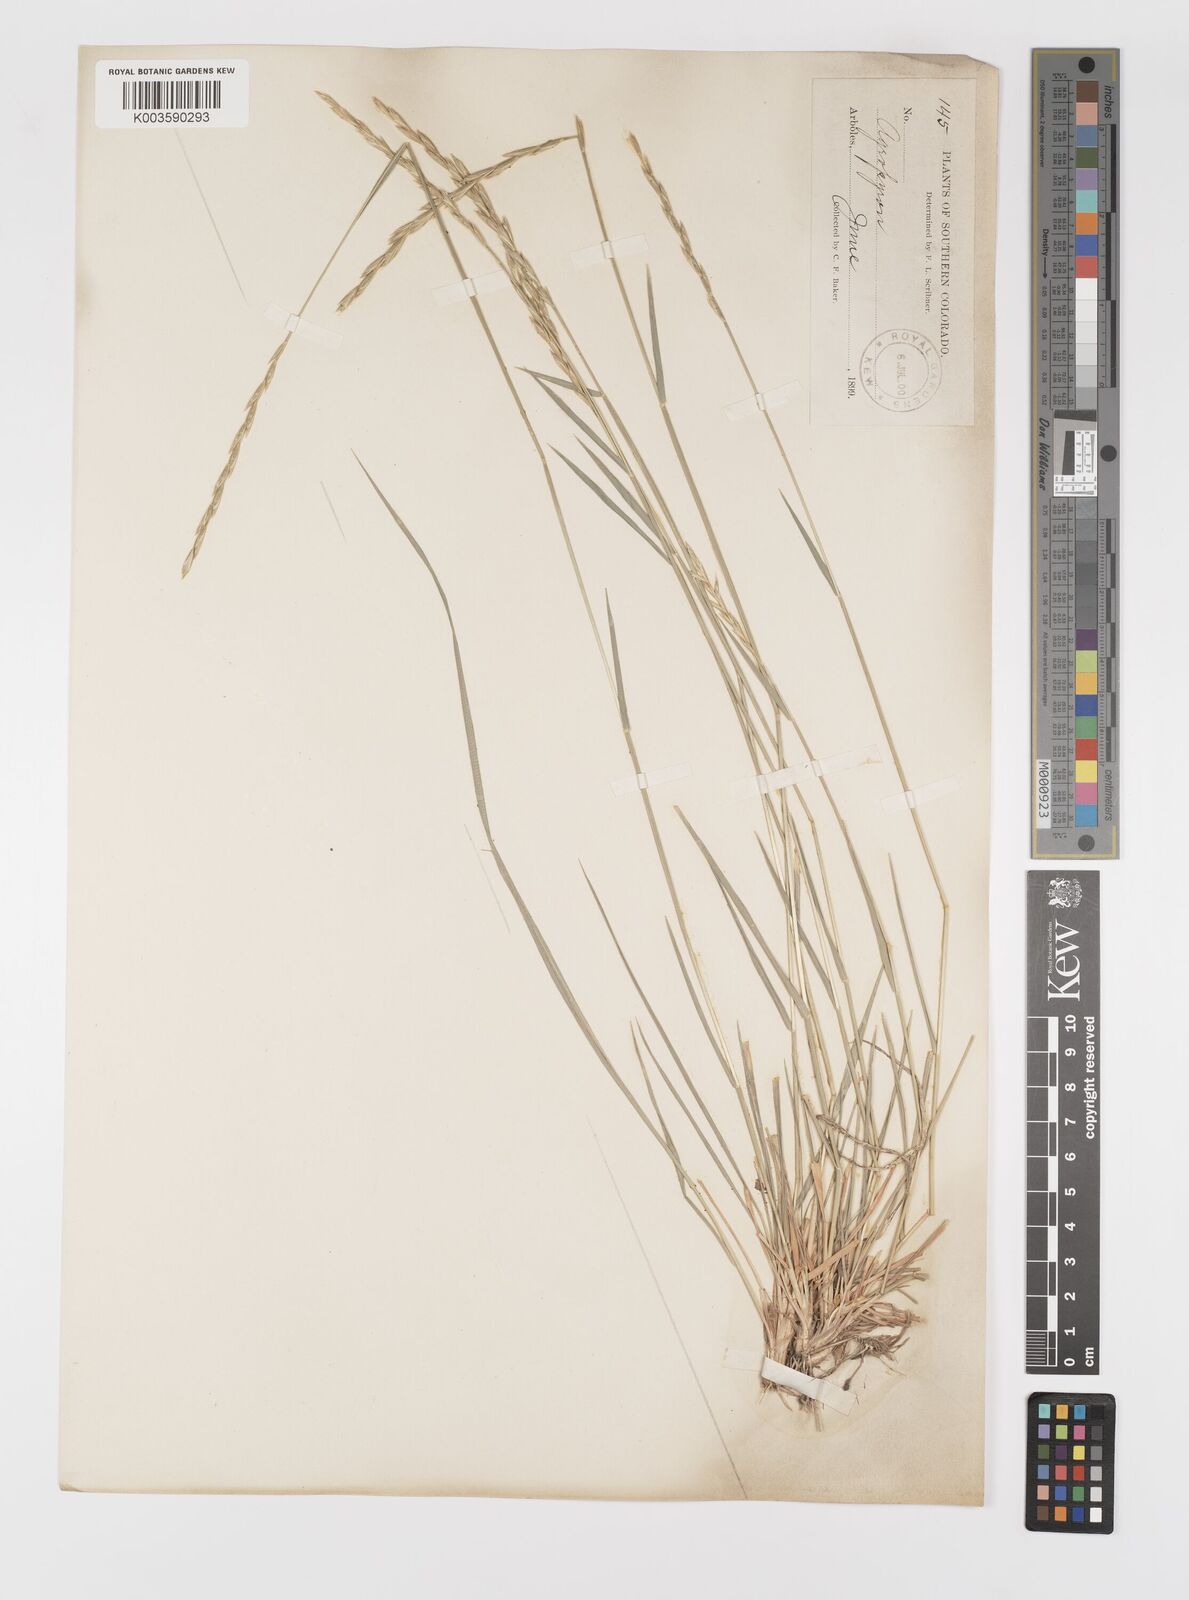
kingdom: Plantae
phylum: Tracheophyta
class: Liliopsida
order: Poales
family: Poaceae
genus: Elymus
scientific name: Elymus
